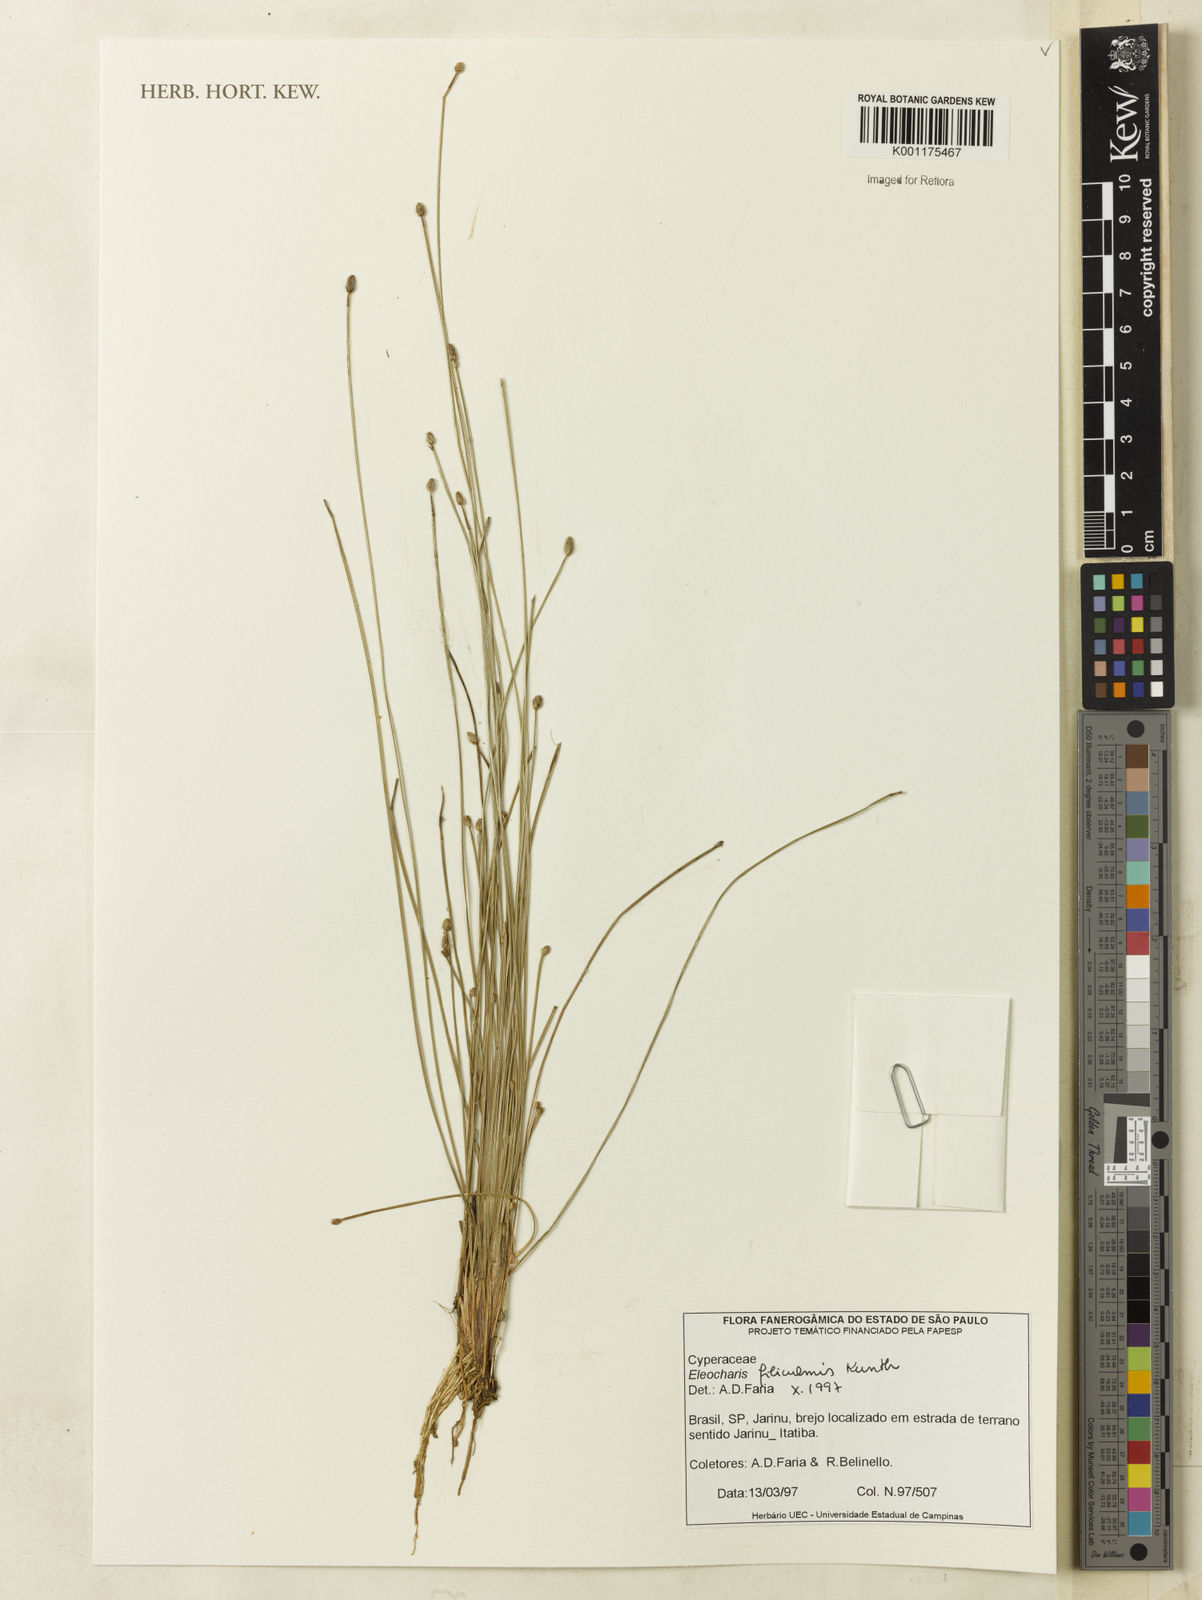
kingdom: Plantae
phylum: Tracheophyta
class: Liliopsida
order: Poales
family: Cyperaceae
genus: Eleocharis
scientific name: Eleocharis filiculmis
